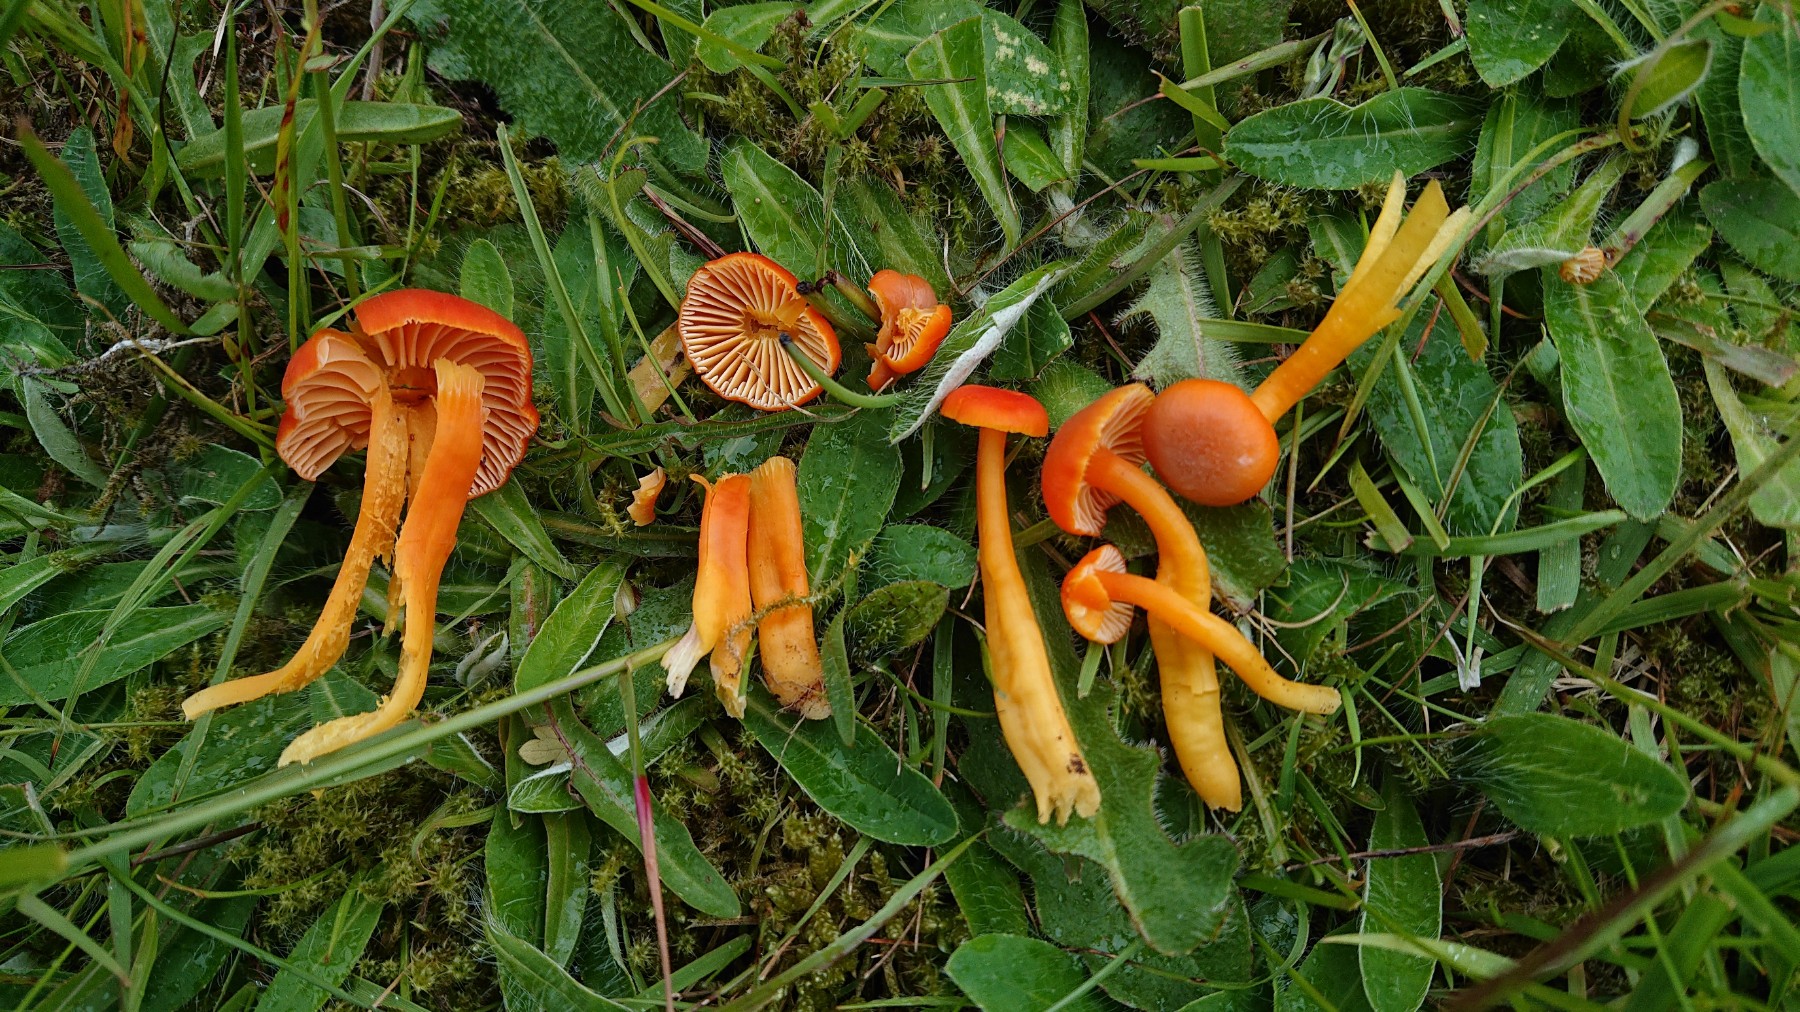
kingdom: Fungi
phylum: Basidiomycota
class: Agaricomycetes
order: Agaricales
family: Hygrophoraceae
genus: Hygrocybe
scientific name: Hygrocybe reidii
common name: honning-vokshat
